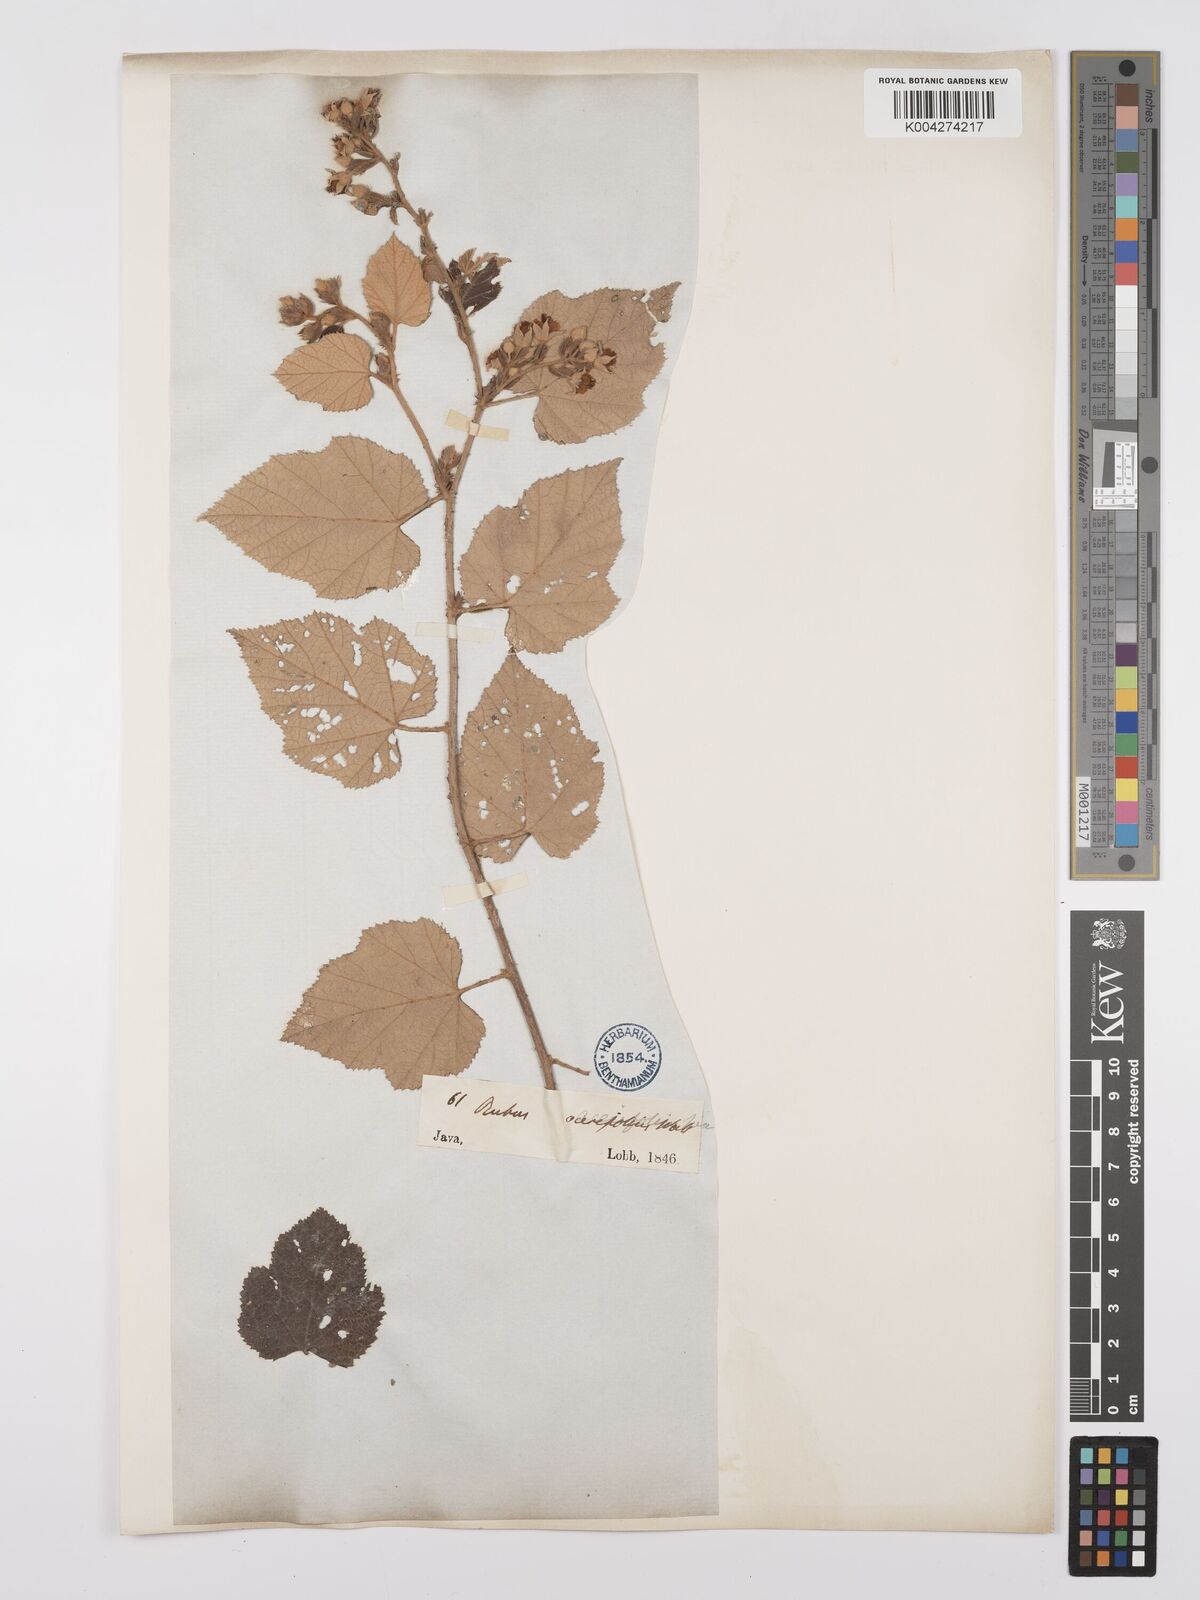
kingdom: Plantae
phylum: Tracheophyta
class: Magnoliopsida
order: Rosales
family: Rosaceae
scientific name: Rosaceae
